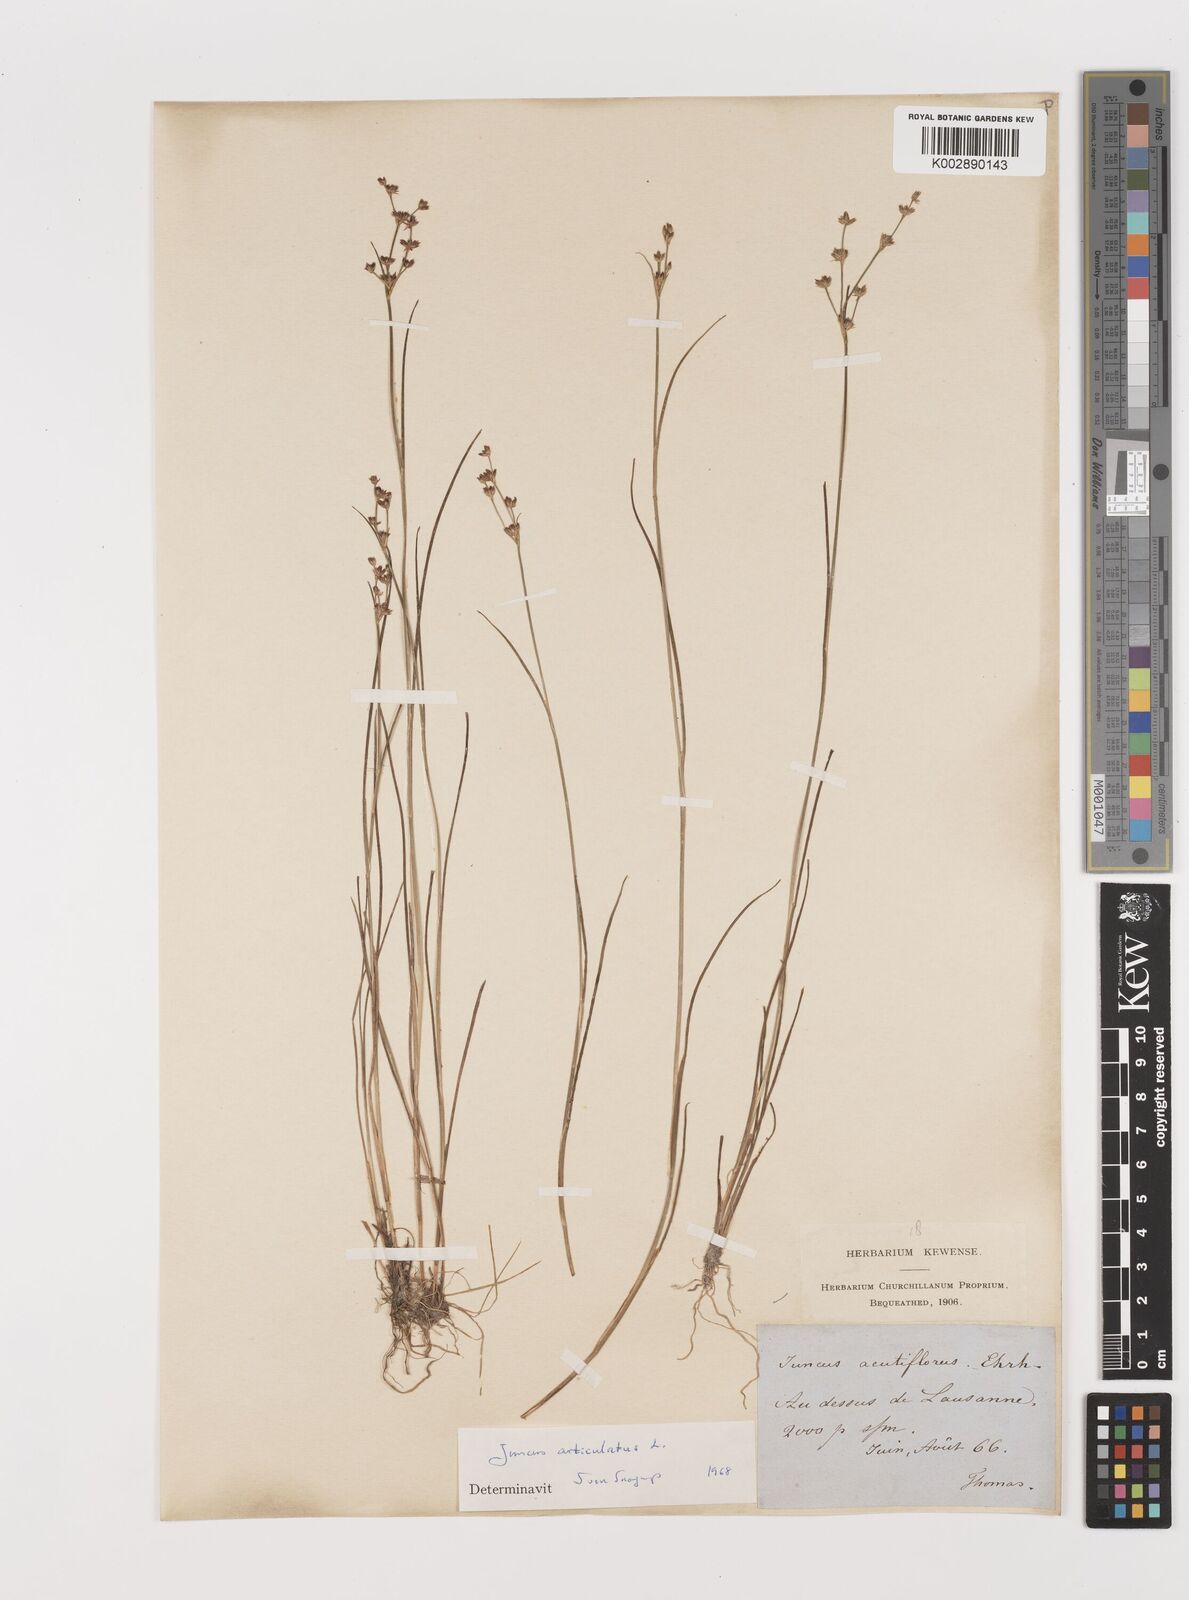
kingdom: Plantae
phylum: Tracheophyta
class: Liliopsida
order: Poales
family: Juncaceae
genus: Juncus
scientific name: Juncus articulatus
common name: Jointed rush
